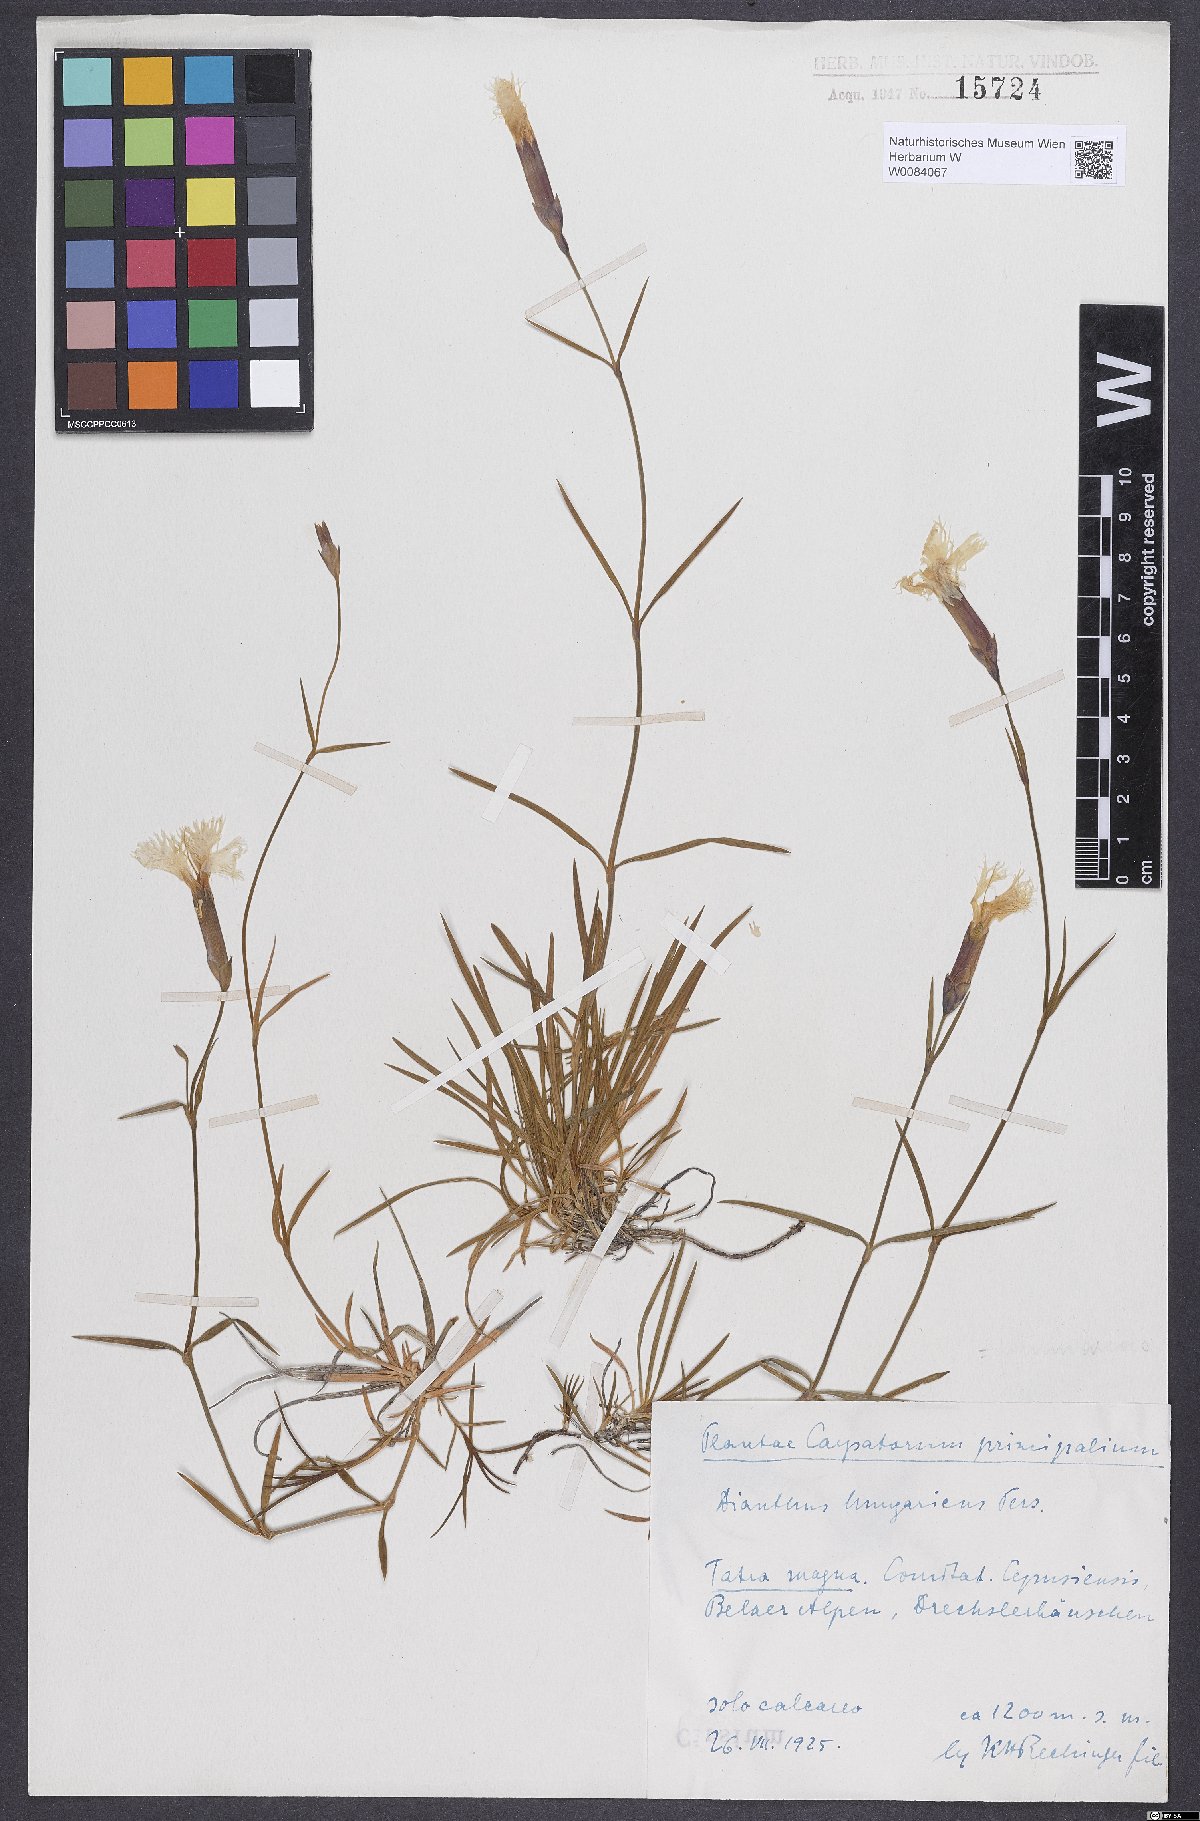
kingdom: Plantae
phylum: Tracheophyta
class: Magnoliopsida
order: Caryophyllales
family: Caryophyllaceae
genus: Dianthus
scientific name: Dianthus plumarius
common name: Pink
